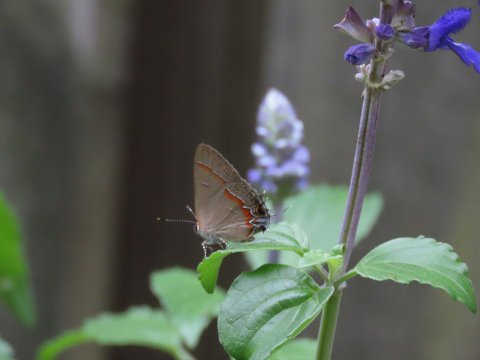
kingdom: Animalia
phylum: Arthropoda
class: Insecta
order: Lepidoptera
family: Lycaenidae
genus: Calycopis
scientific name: Calycopis cecrops
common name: Red-banded Hairstreak
